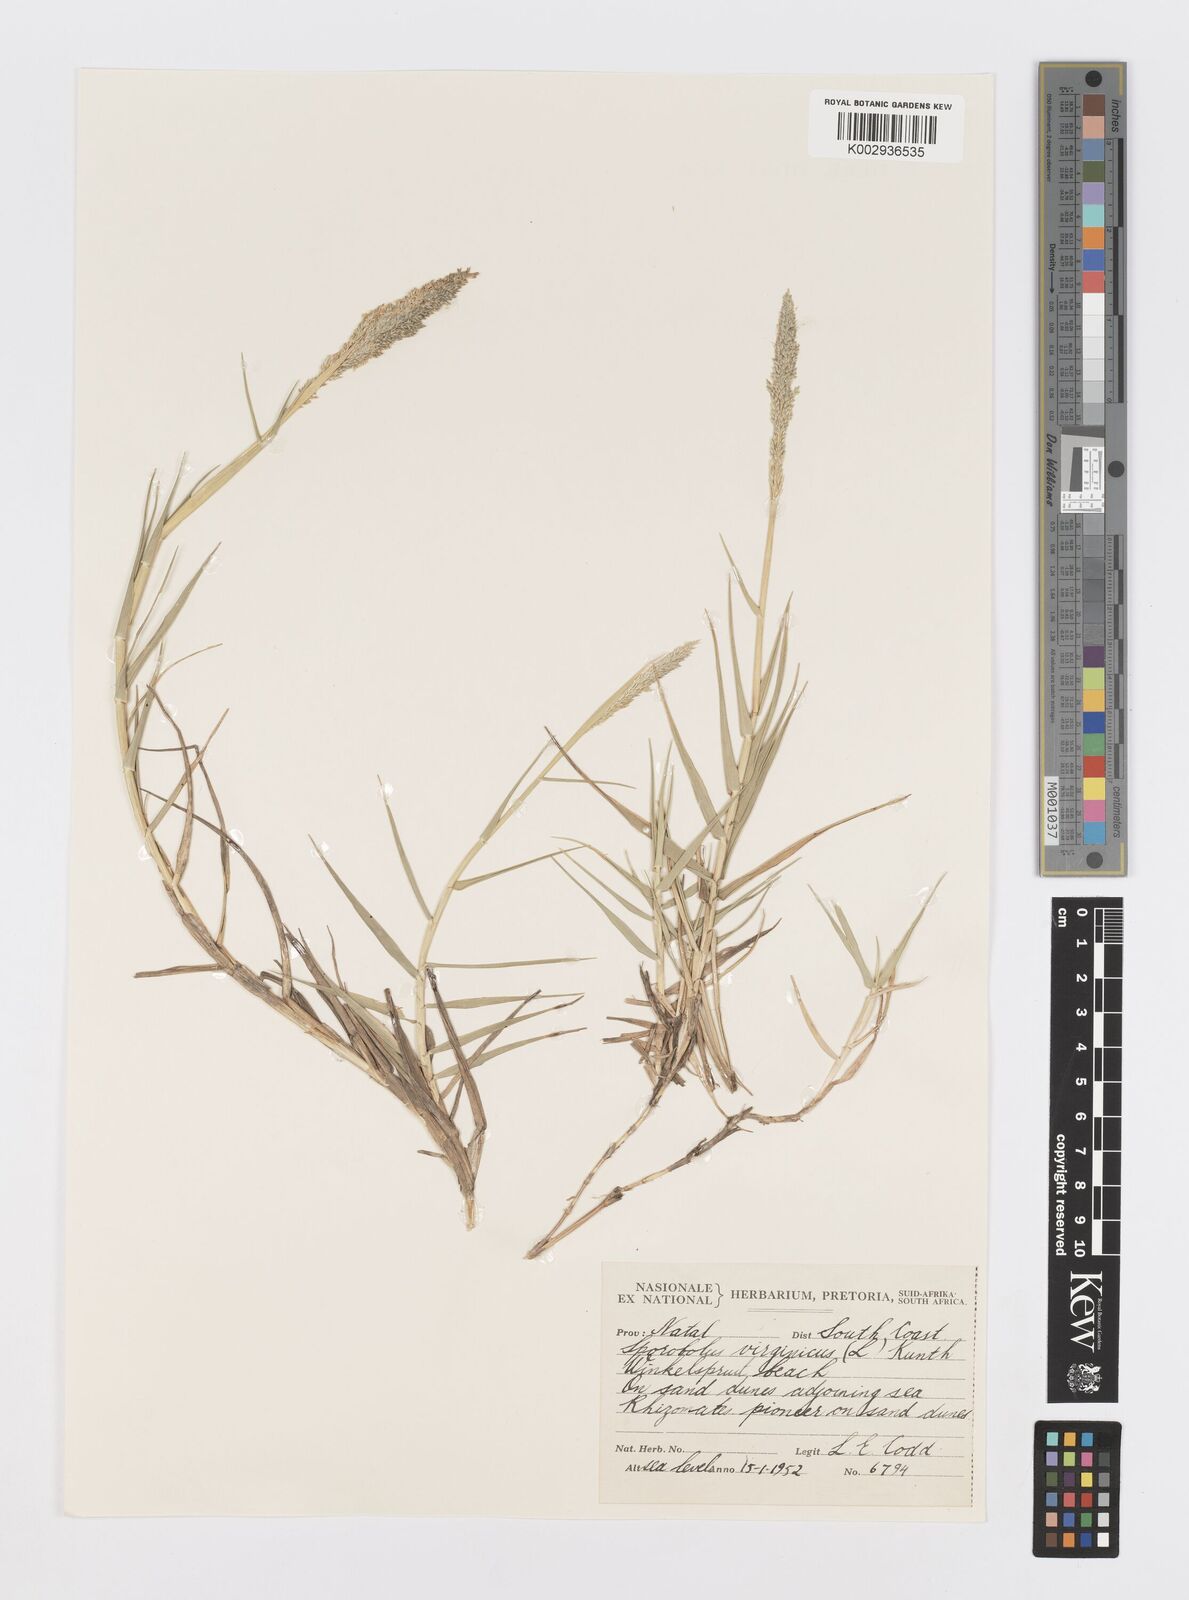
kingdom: Plantae
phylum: Tracheophyta
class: Liliopsida
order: Poales
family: Poaceae
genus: Sporobolus
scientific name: Sporobolus virginicus
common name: Beach dropseed
